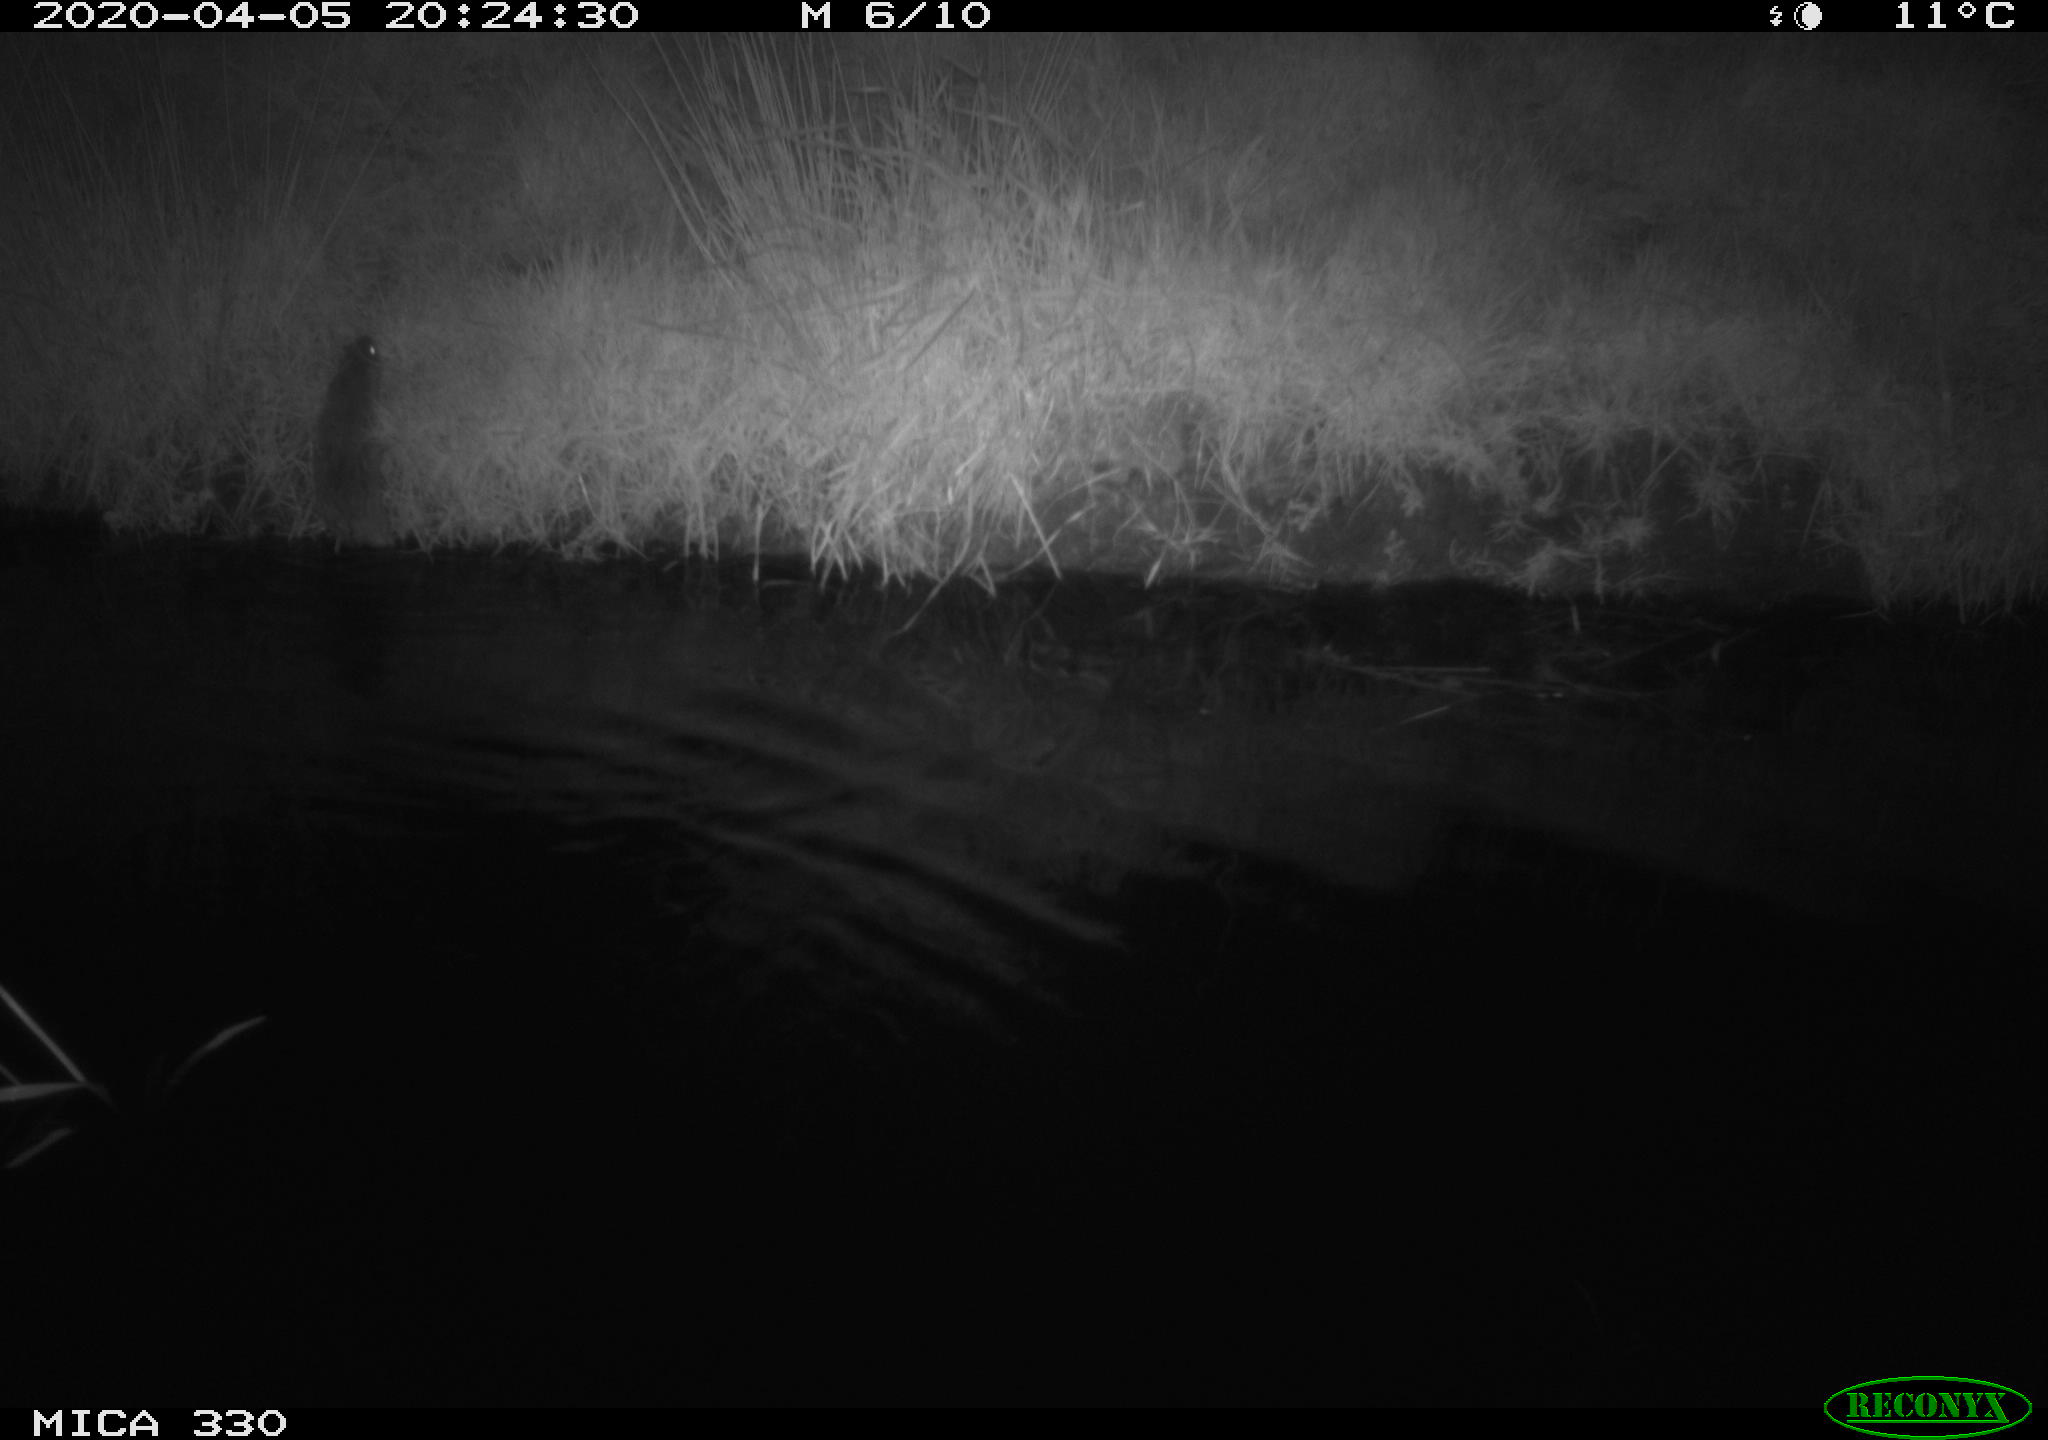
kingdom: Animalia
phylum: Chordata
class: Mammalia
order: Rodentia
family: Muridae
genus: Rattus
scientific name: Rattus norvegicus
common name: Brown rat
